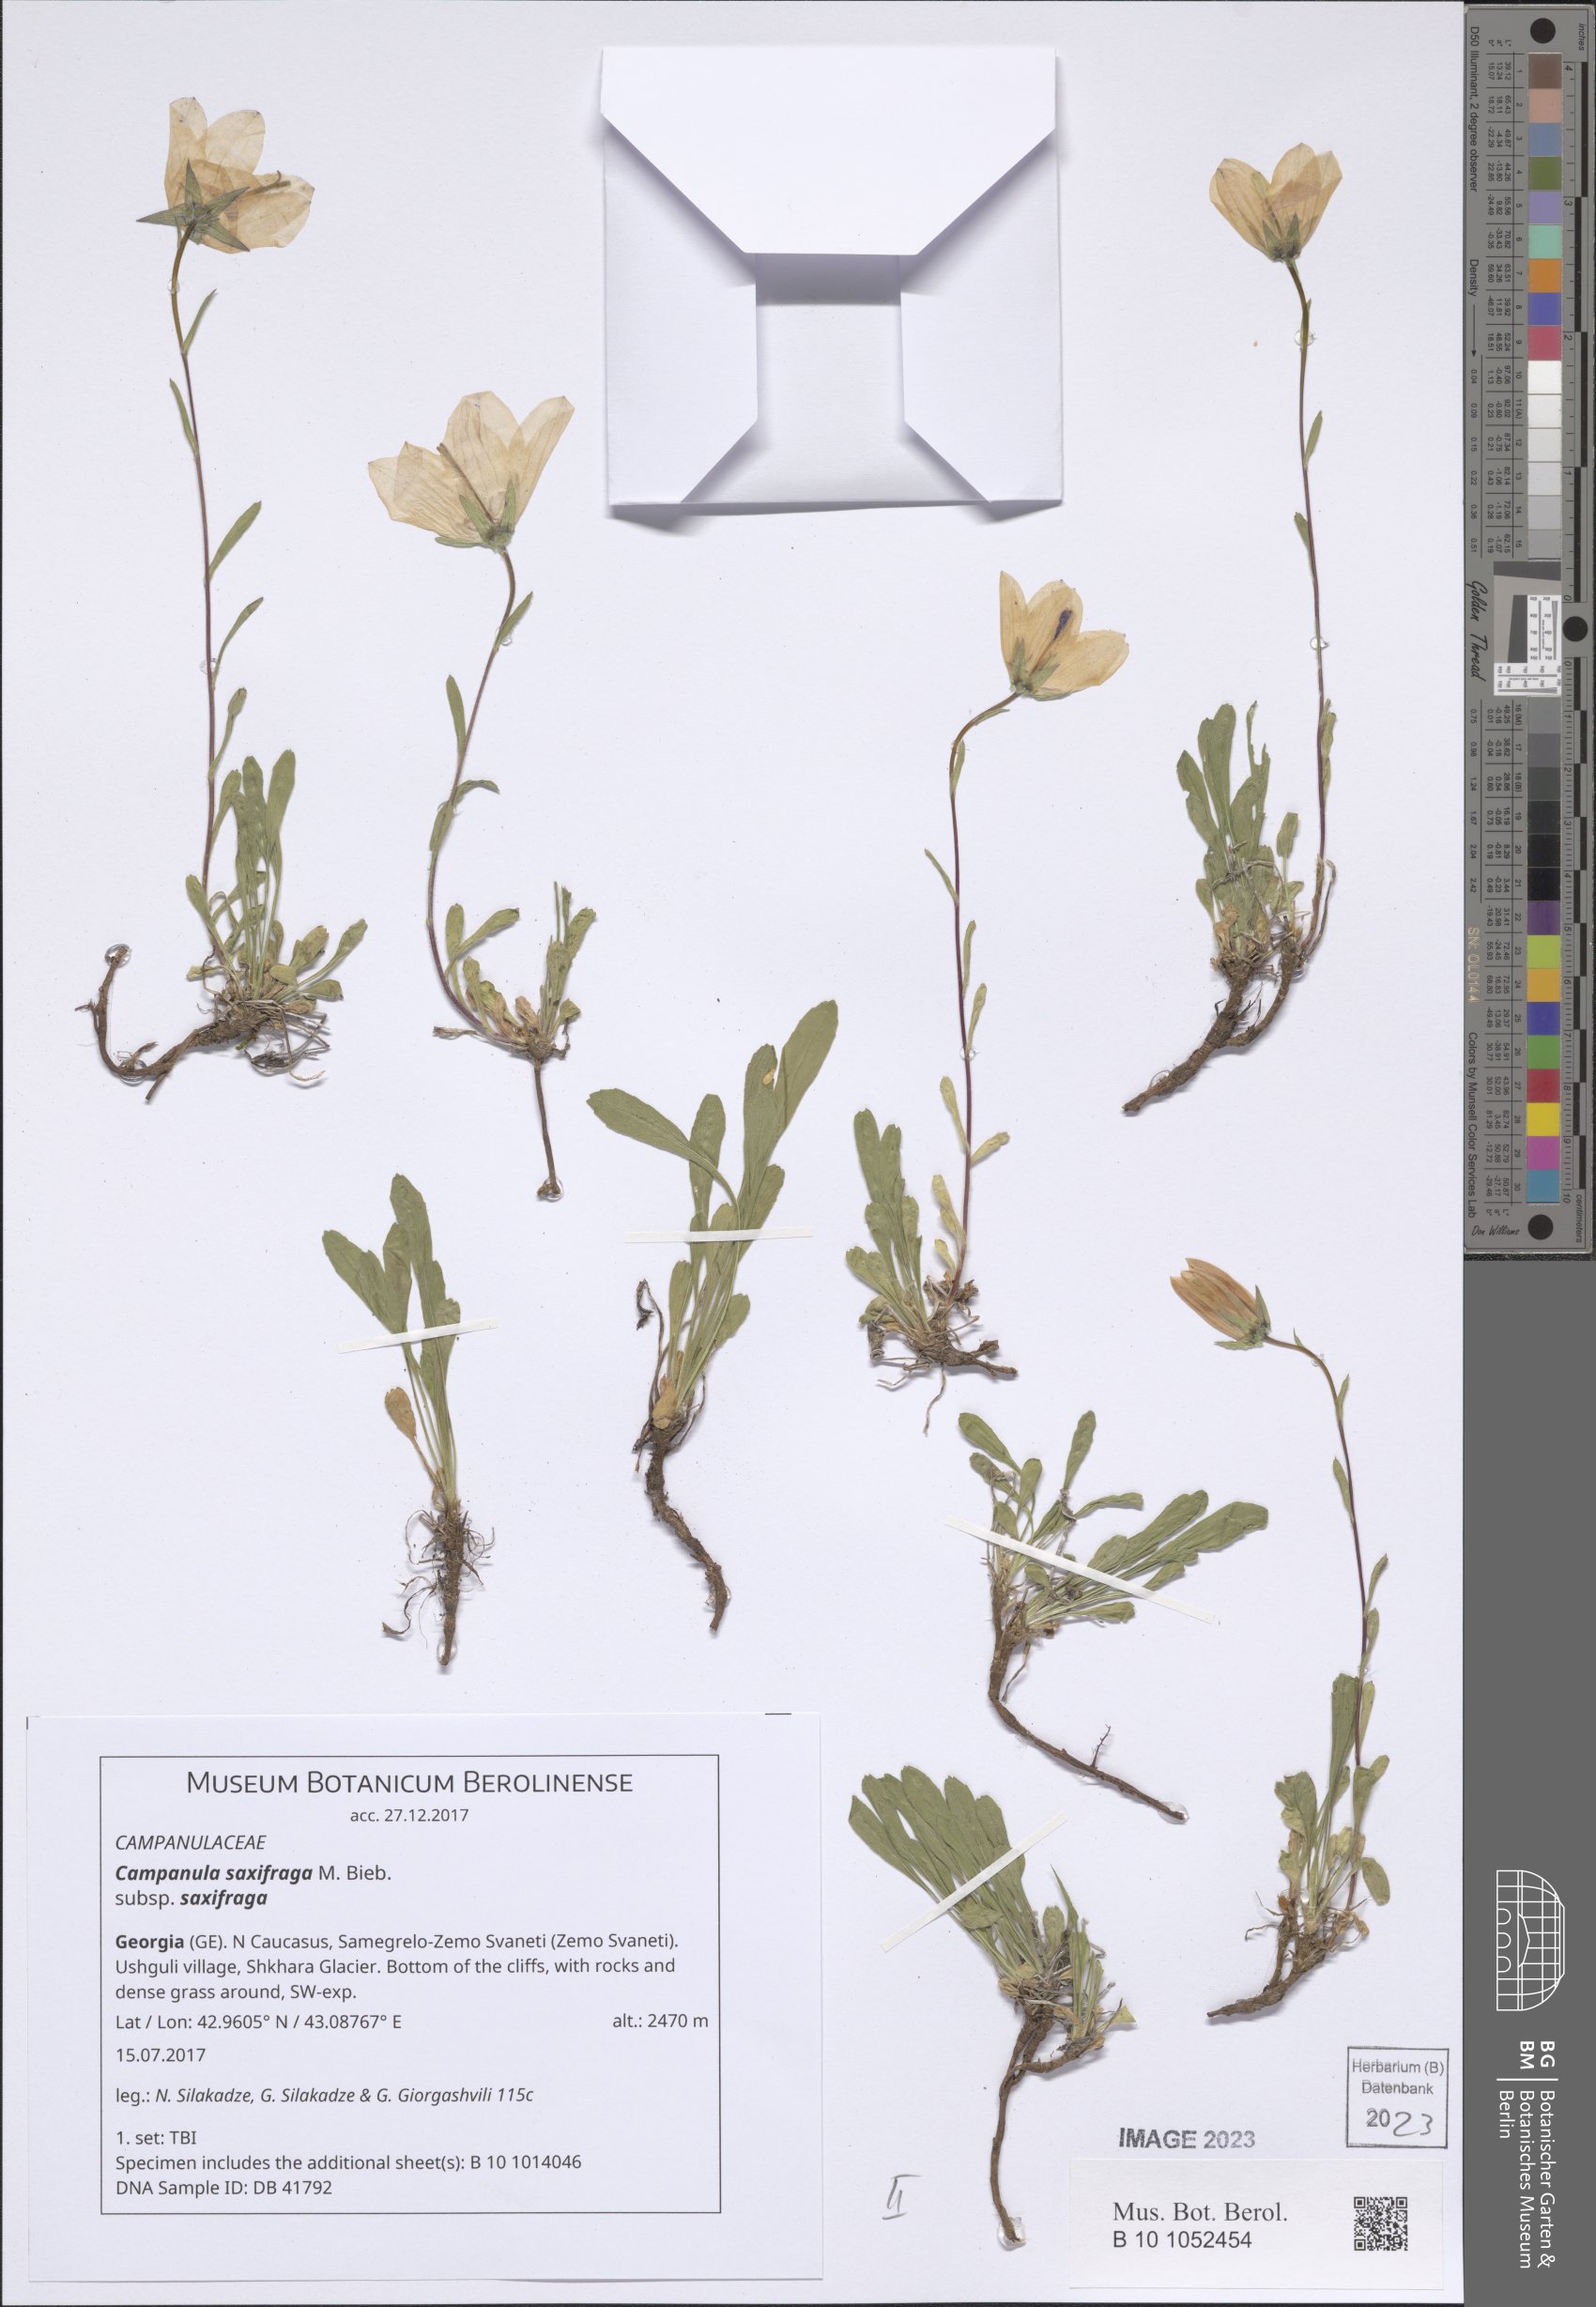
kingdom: Plantae
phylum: Tracheophyta
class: Magnoliopsida
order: Asterales
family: Campanulaceae
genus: Campanula
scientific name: Campanula saxifraga
